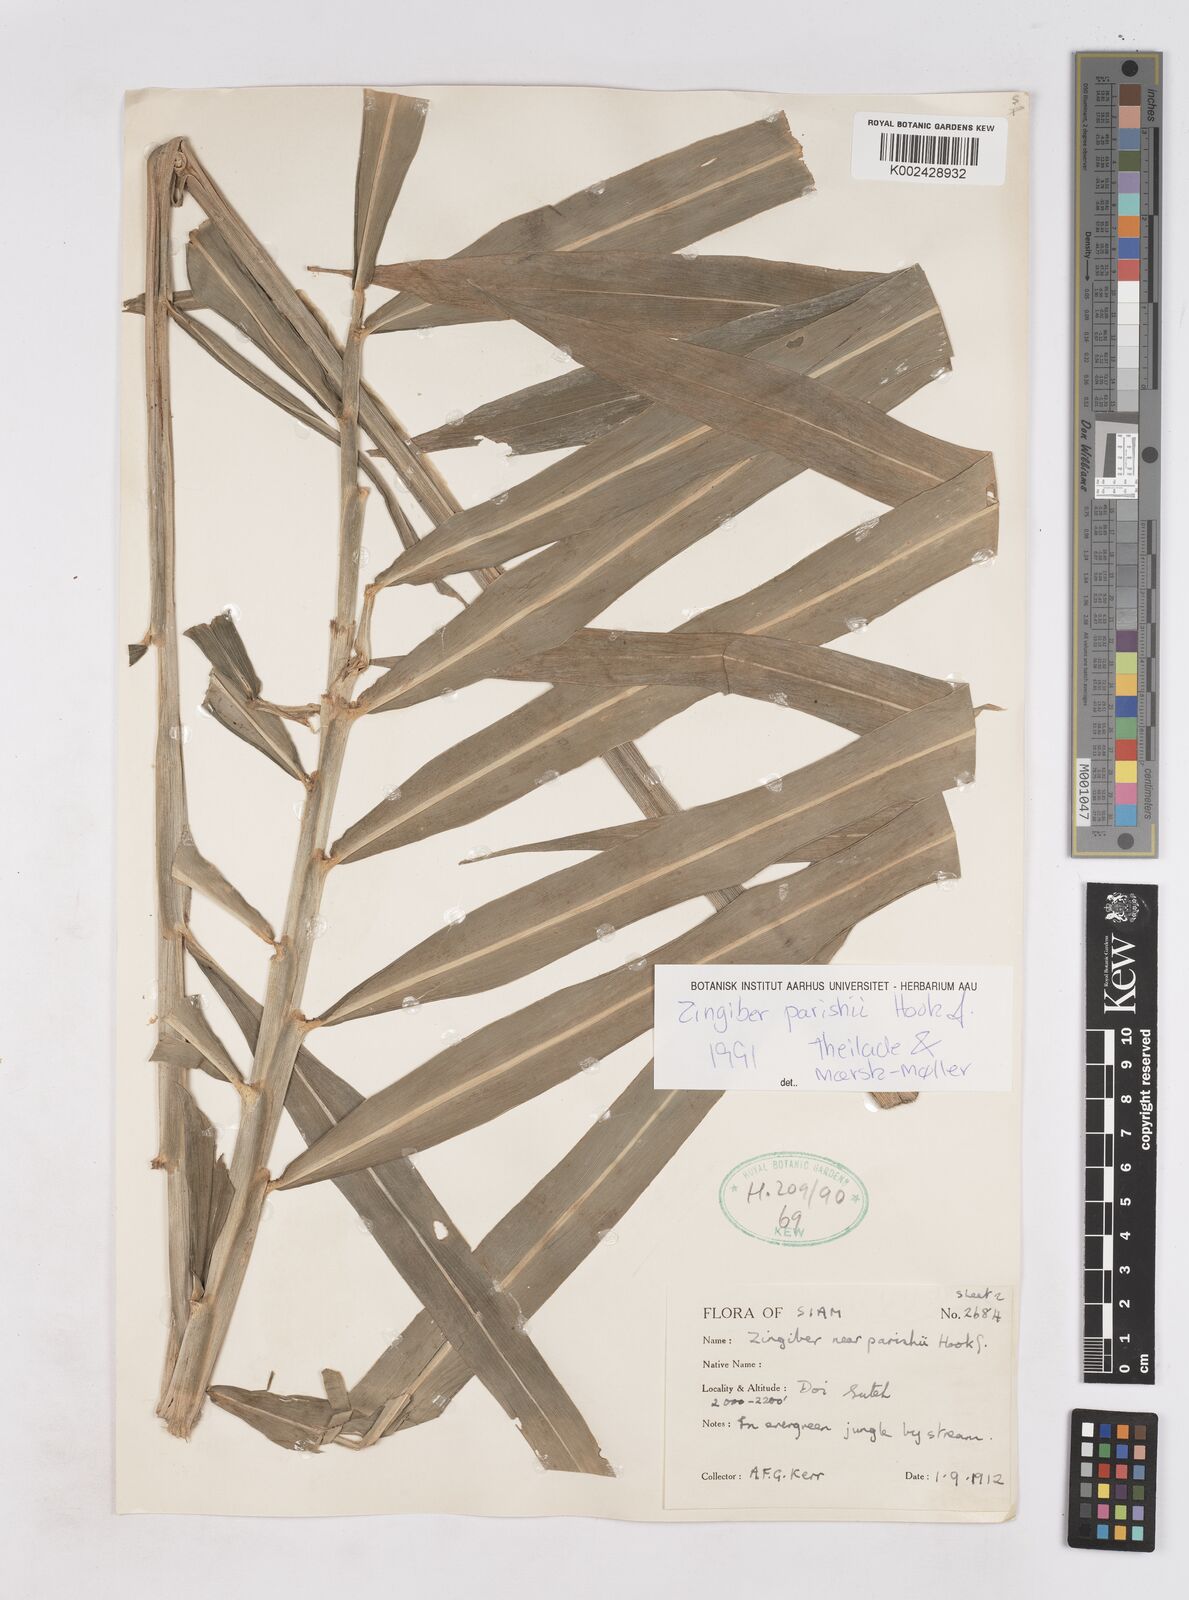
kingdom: Plantae
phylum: Tracheophyta
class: Liliopsida
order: Zingiberales
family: Zingiberaceae
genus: Zingiber
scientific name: Zingiber parishii
